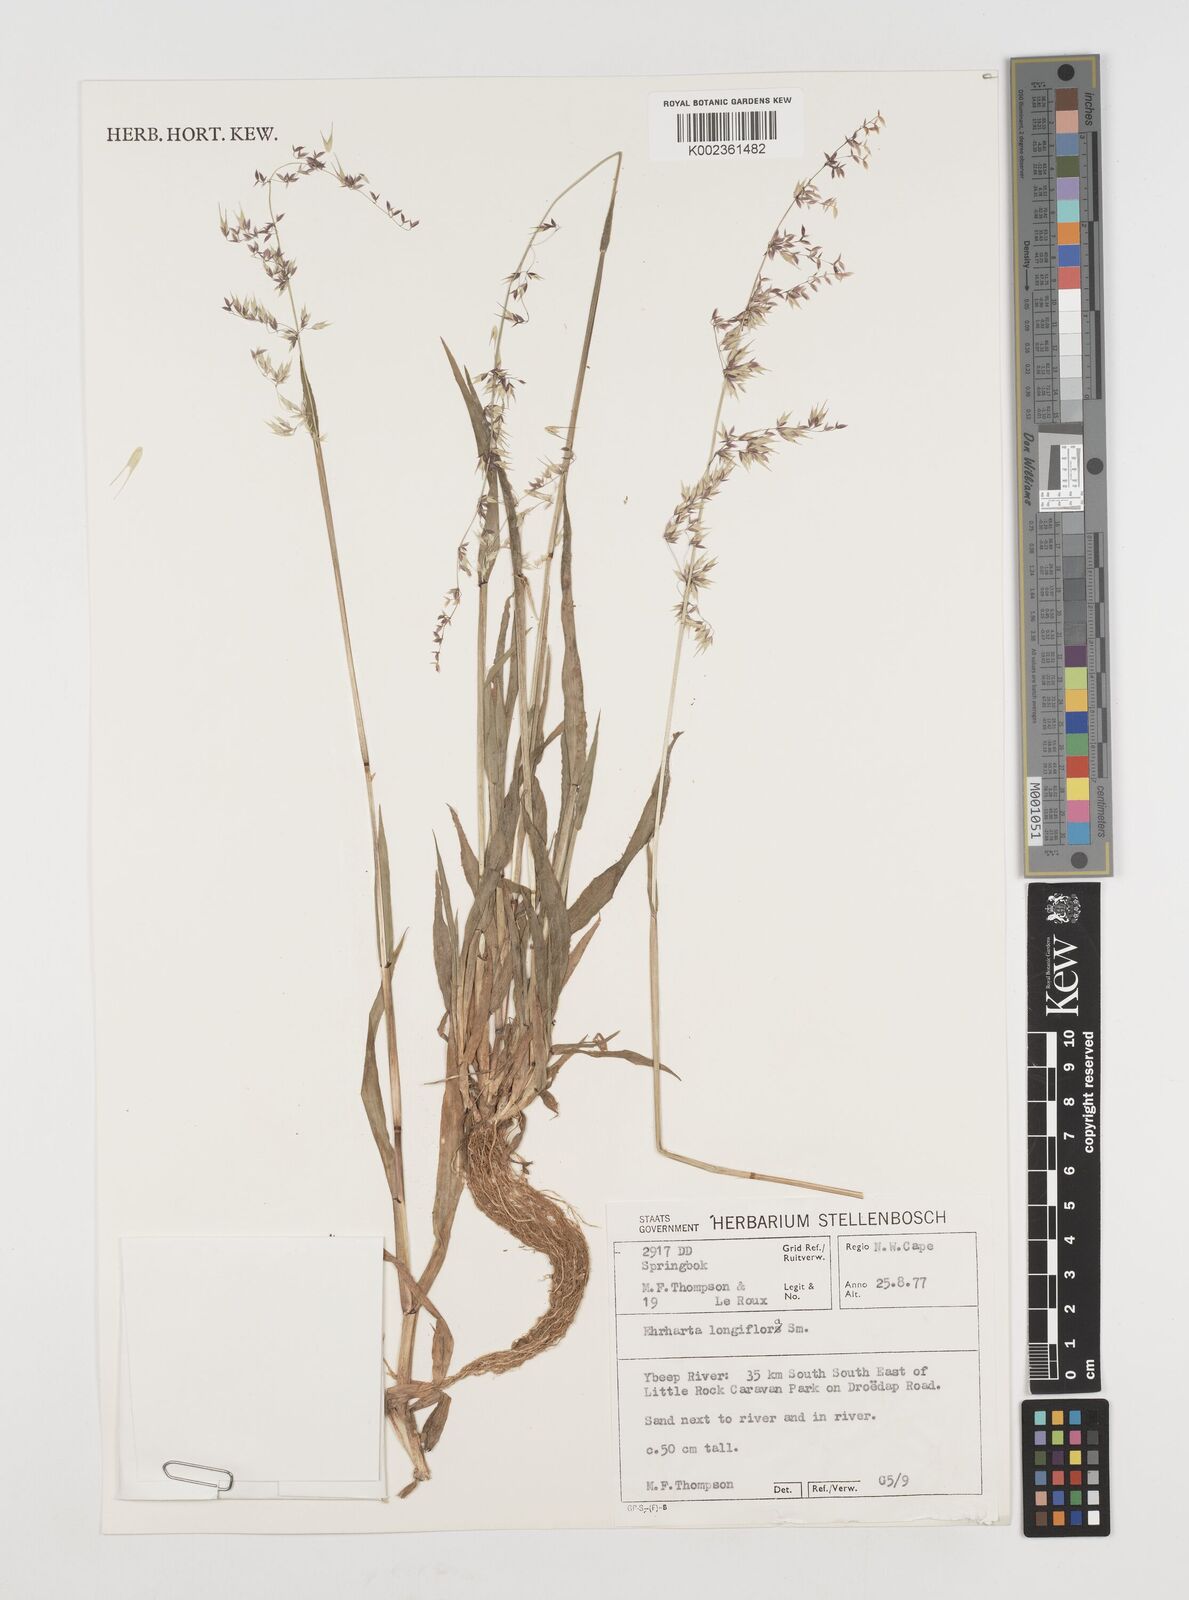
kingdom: Plantae
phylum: Tracheophyta
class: Liliopsida
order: Poales
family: Poaceae
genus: Ehrharta
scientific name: Ehrharta longiflora
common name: Longflowered veldtgrass
